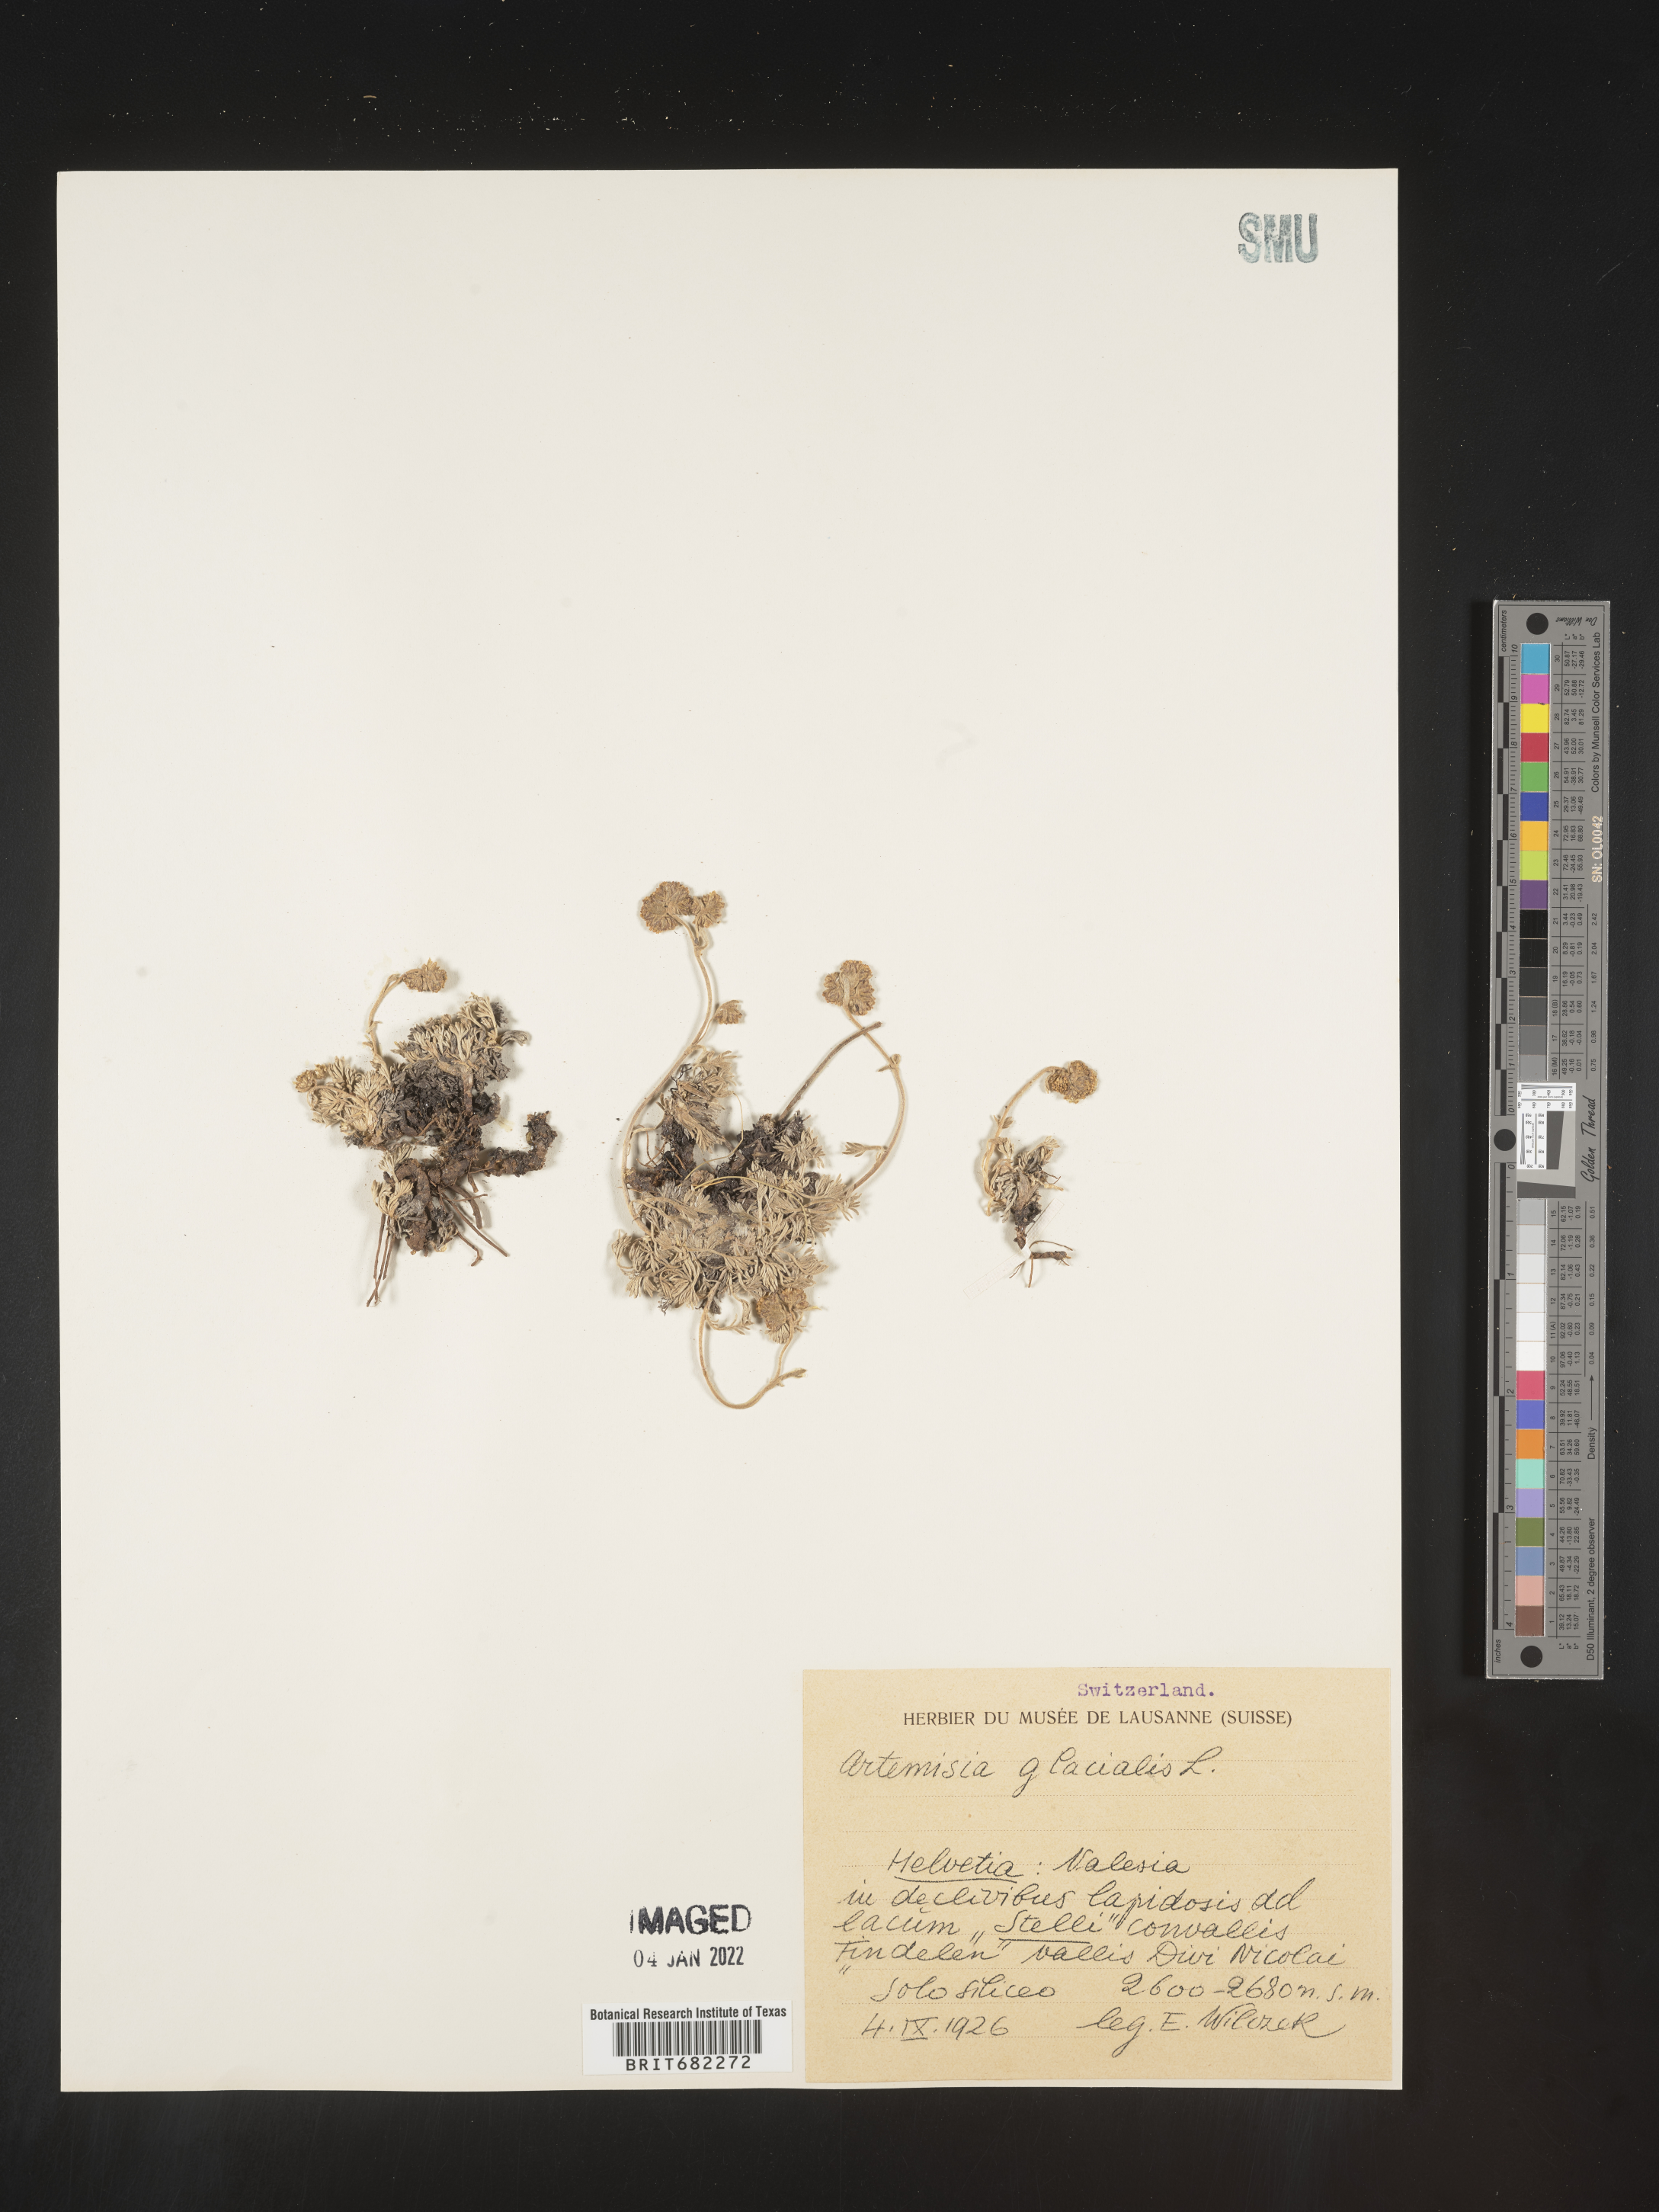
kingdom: Plantae
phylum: Tracheophyta
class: Magnoliopsida
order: Asterales
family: Asteraceae
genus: Artemisia
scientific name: Artemisia
